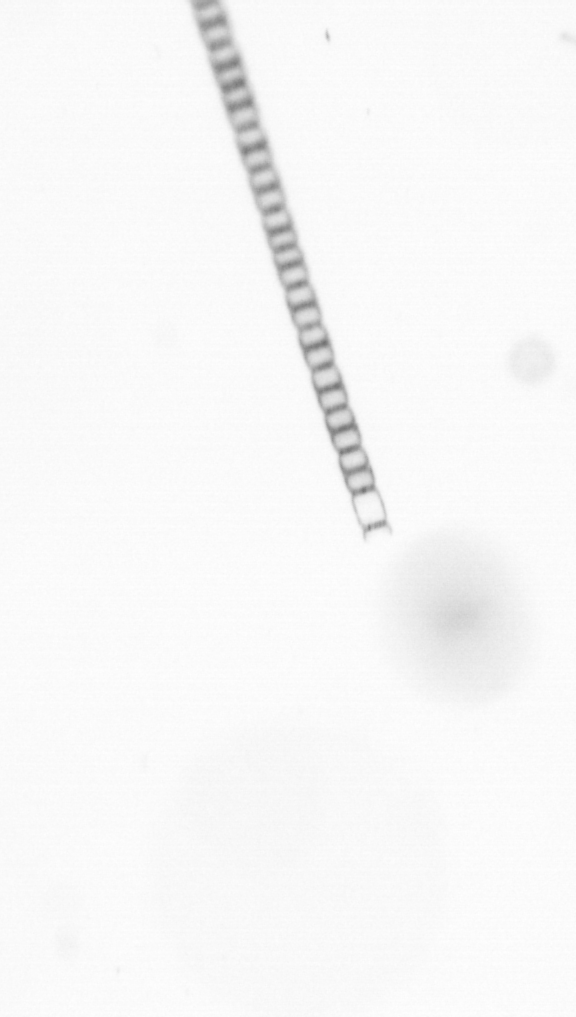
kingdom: Chromista
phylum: Ochrophyta
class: Bacillariophyceae
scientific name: Bacillariophyceae
